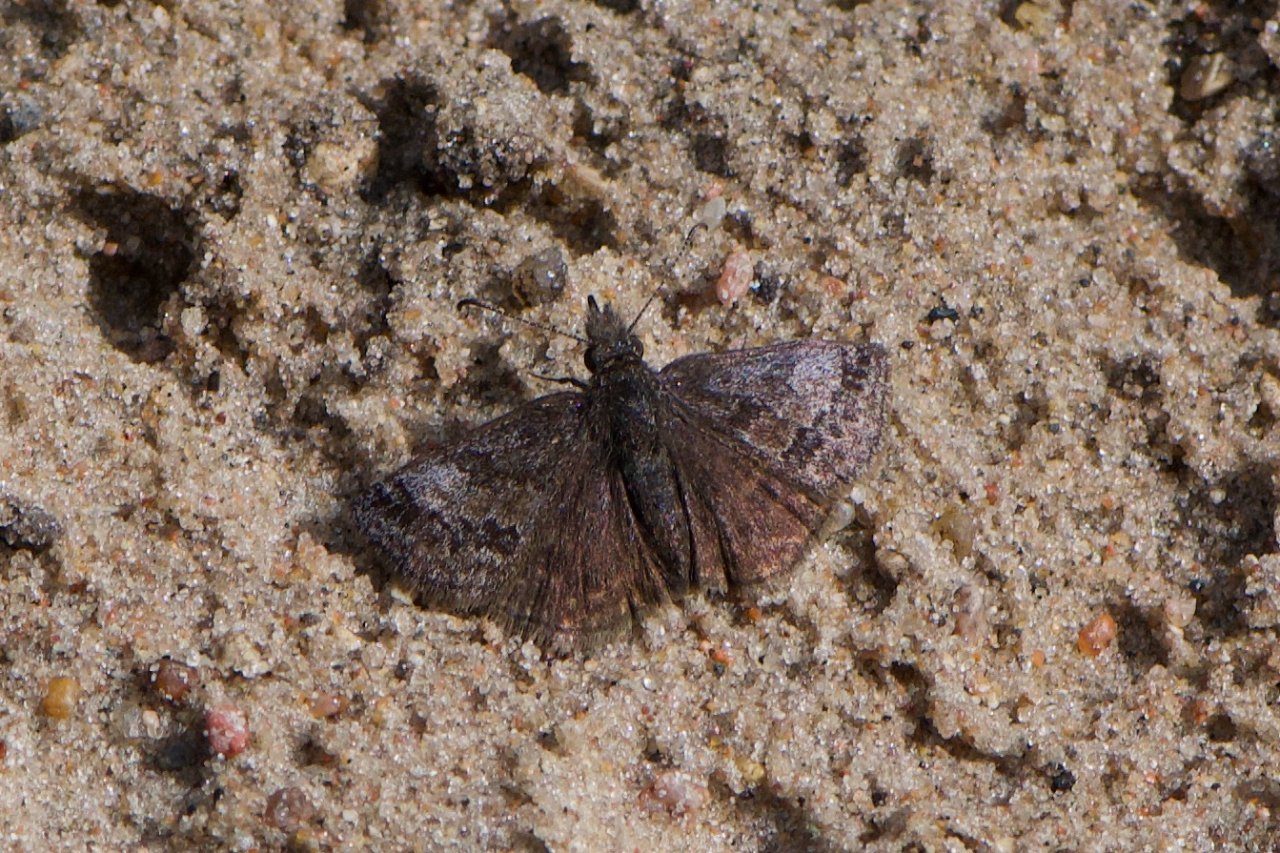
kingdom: Animalia
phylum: Arthropoda
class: Insecta
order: Lepidoptera
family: Hesperiidae
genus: Erynnis
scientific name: Erynnis icelus
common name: Dreamy Duskywing
